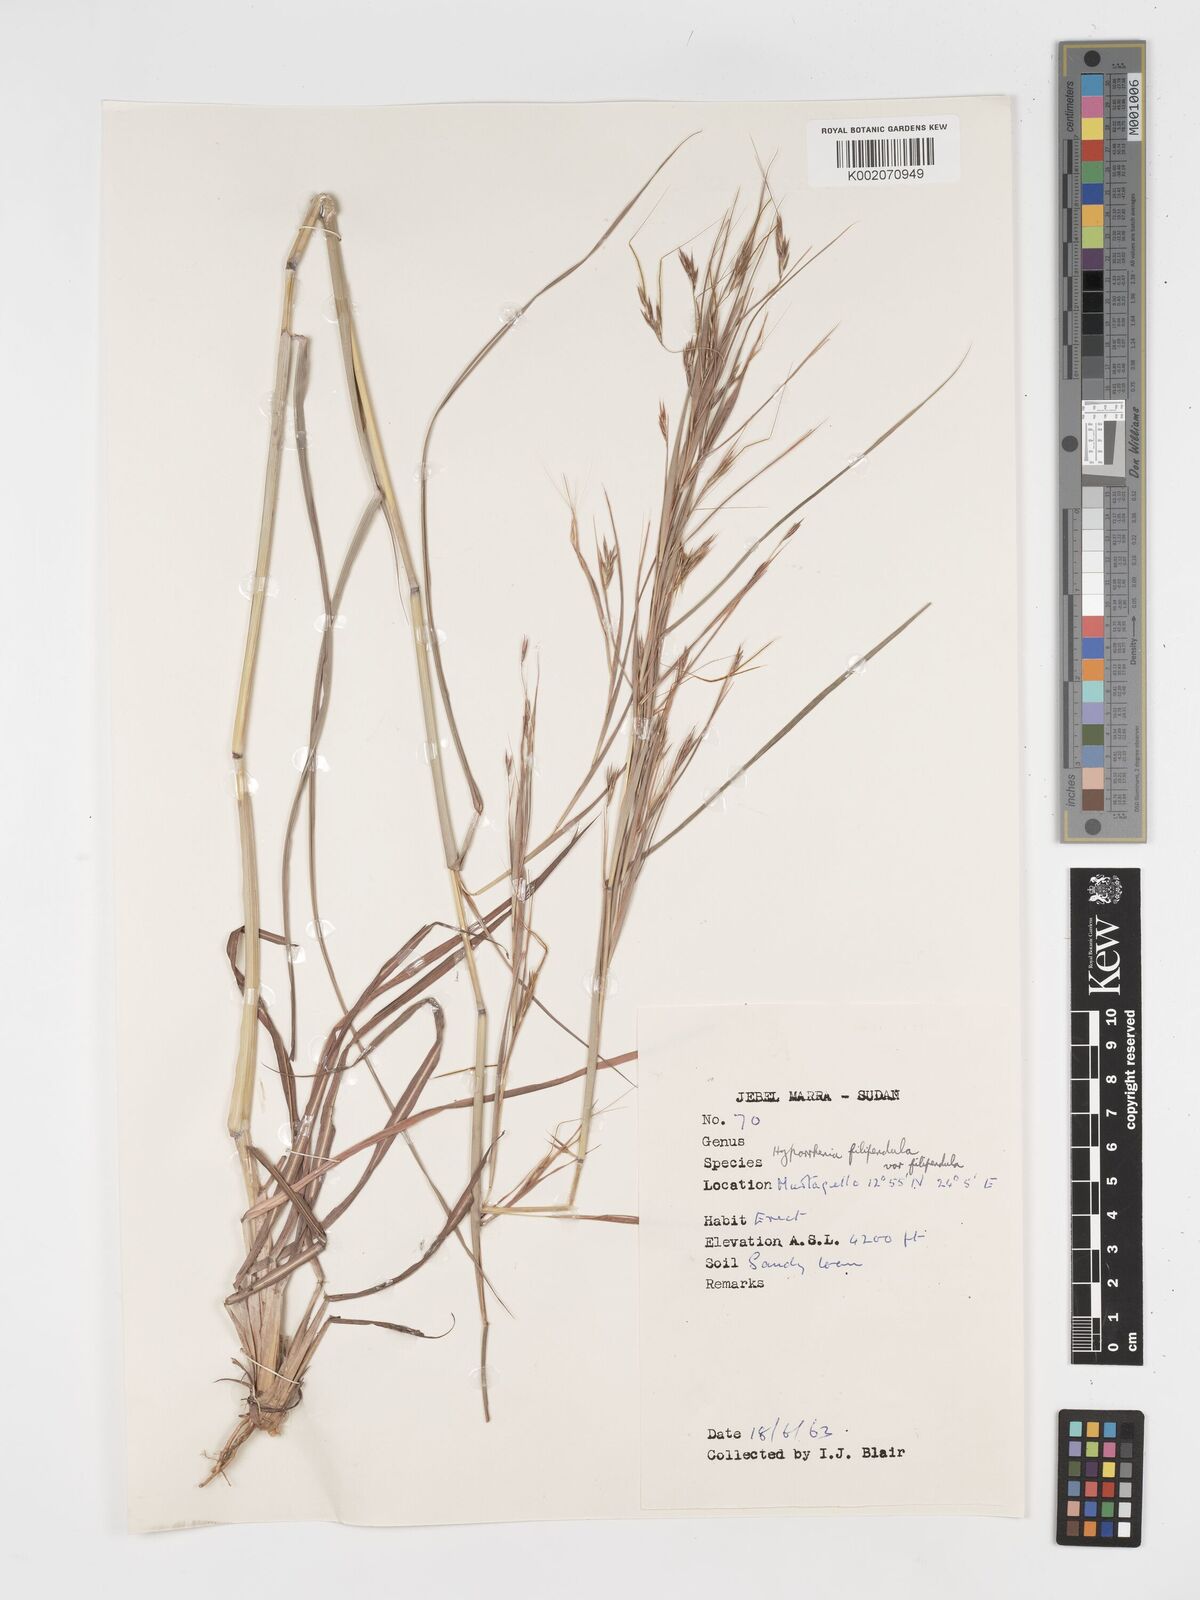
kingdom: Plantae
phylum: Tracheophyta
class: Liliopsida
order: Poales
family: Poaceae
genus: Hyparrhenia
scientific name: Hyparrhenia filipendula
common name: Tambookie grass
